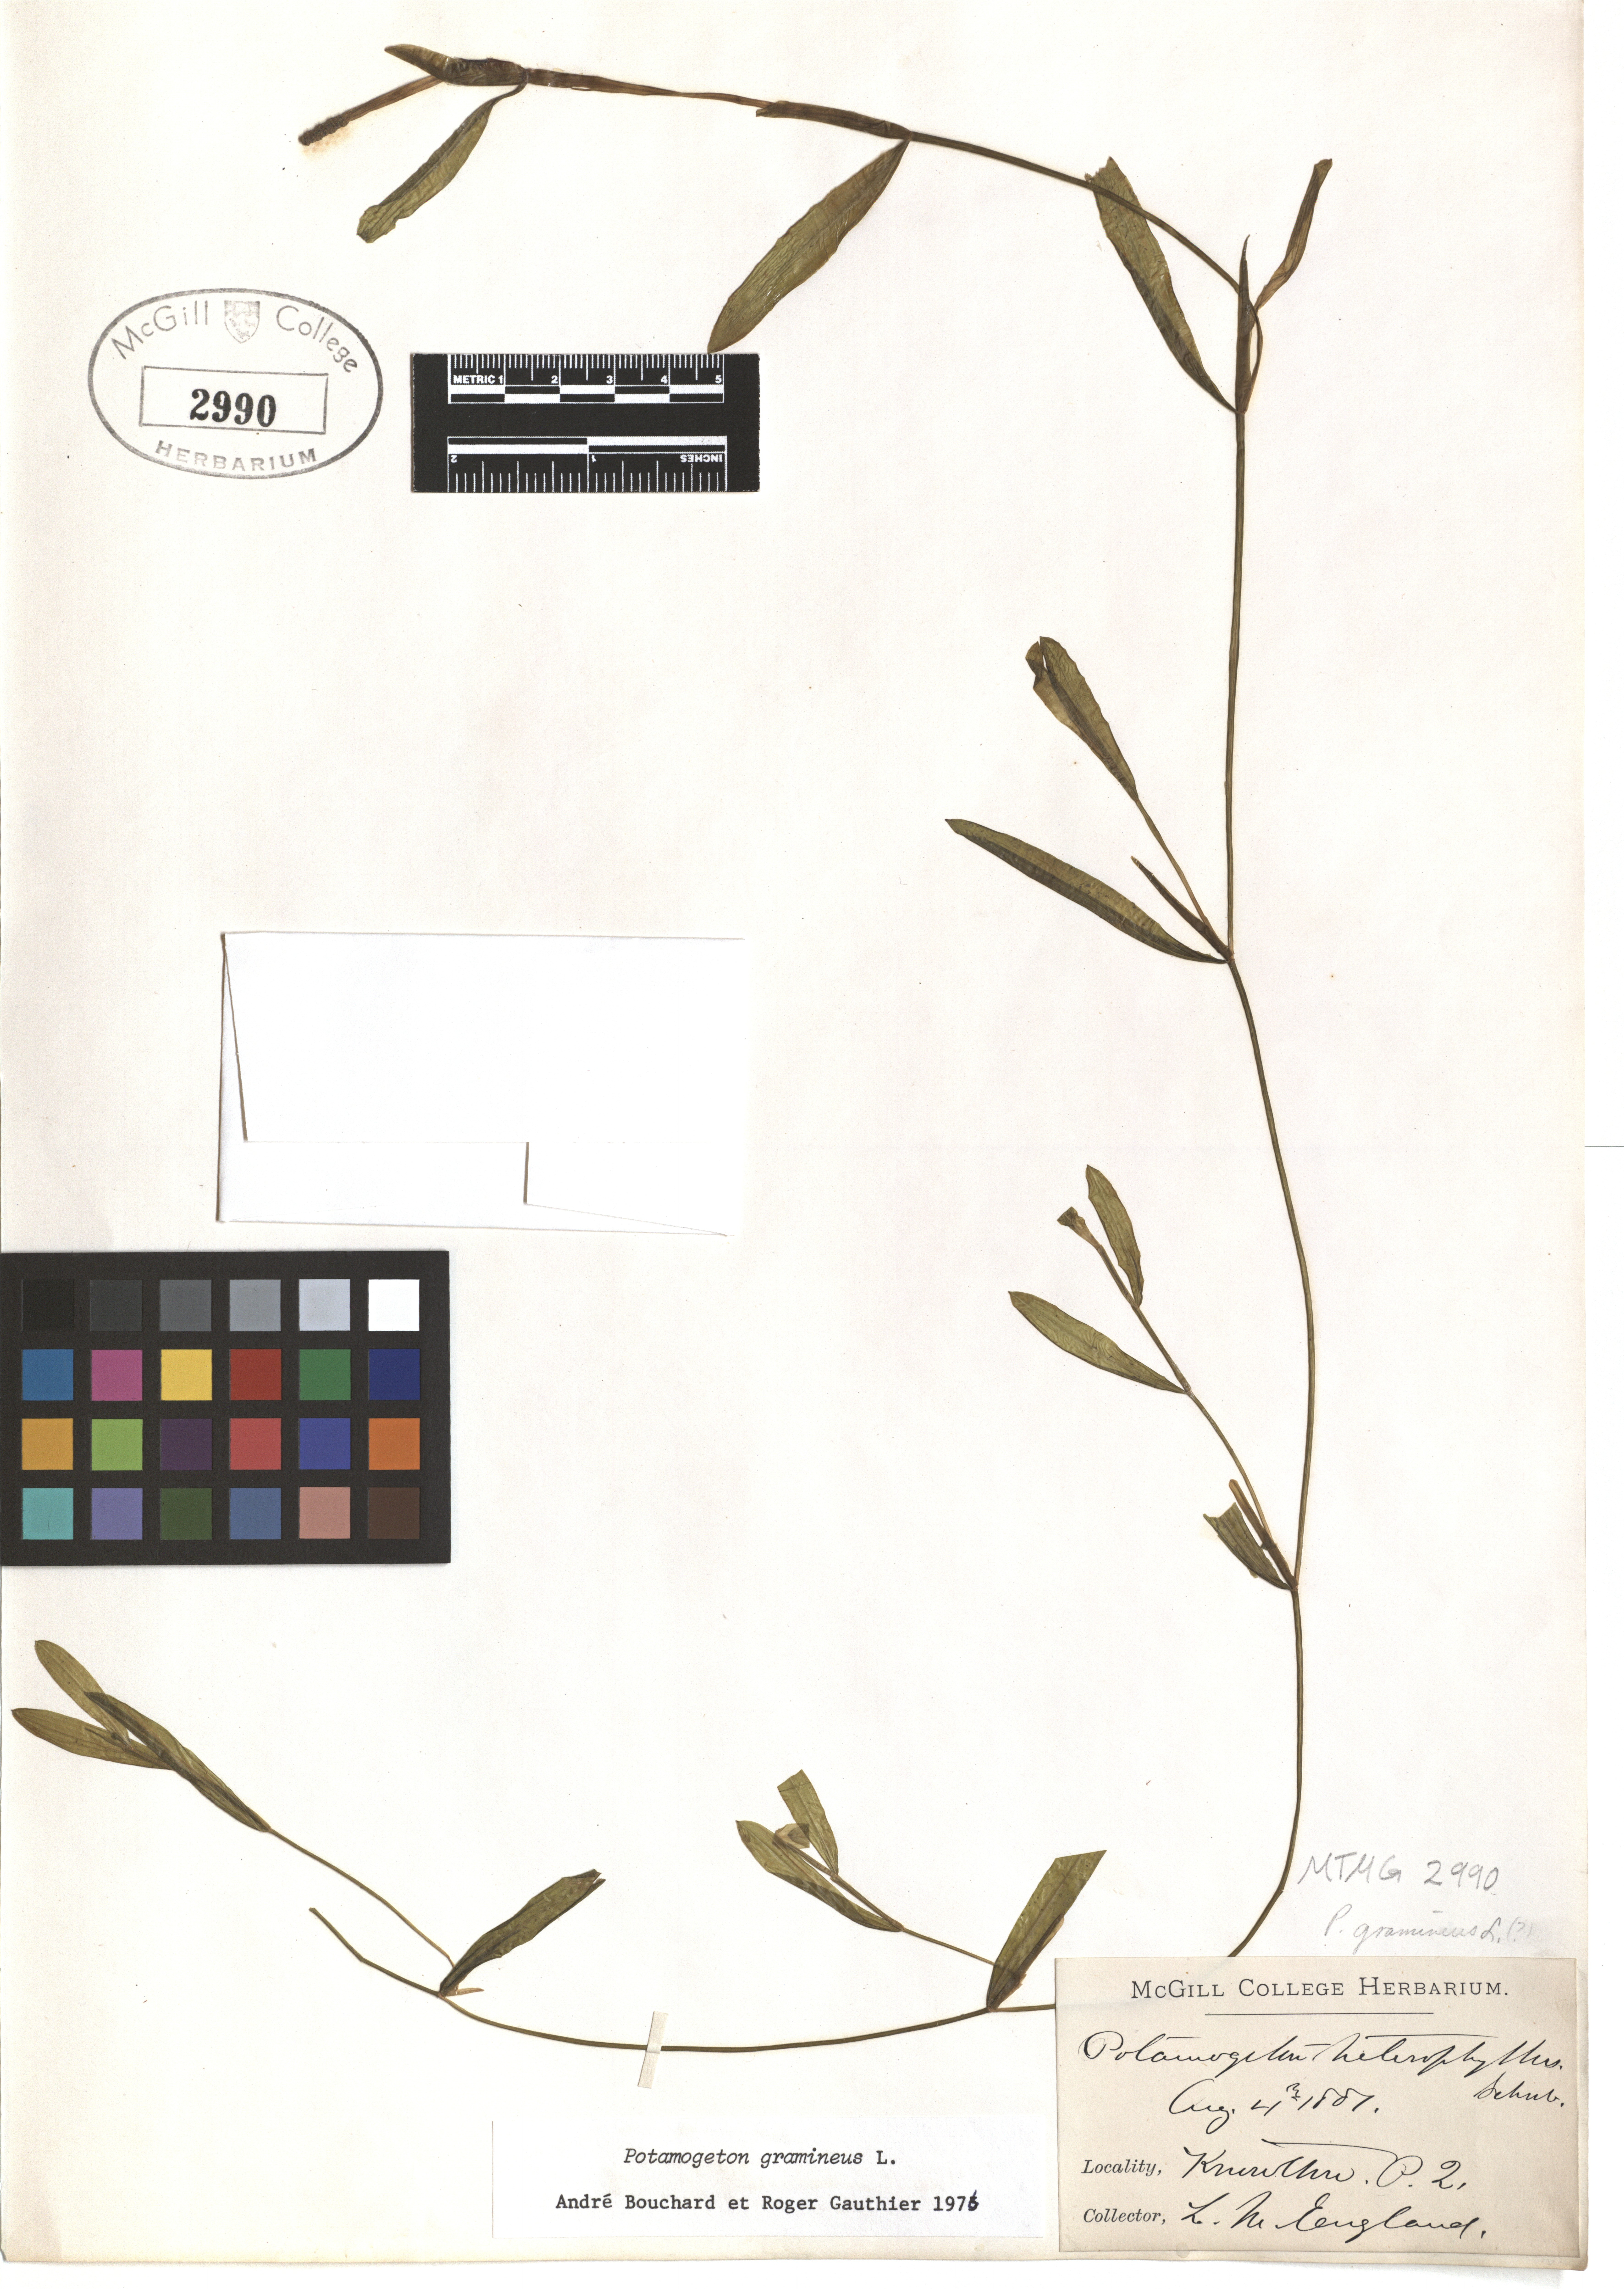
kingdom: Plantae
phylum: Tracheophyta
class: Liliopsida
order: Alismatales
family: Potamogetonaceae
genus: Potamogeton
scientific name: Potamogeton gramineus
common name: Various-leaved pondweed
